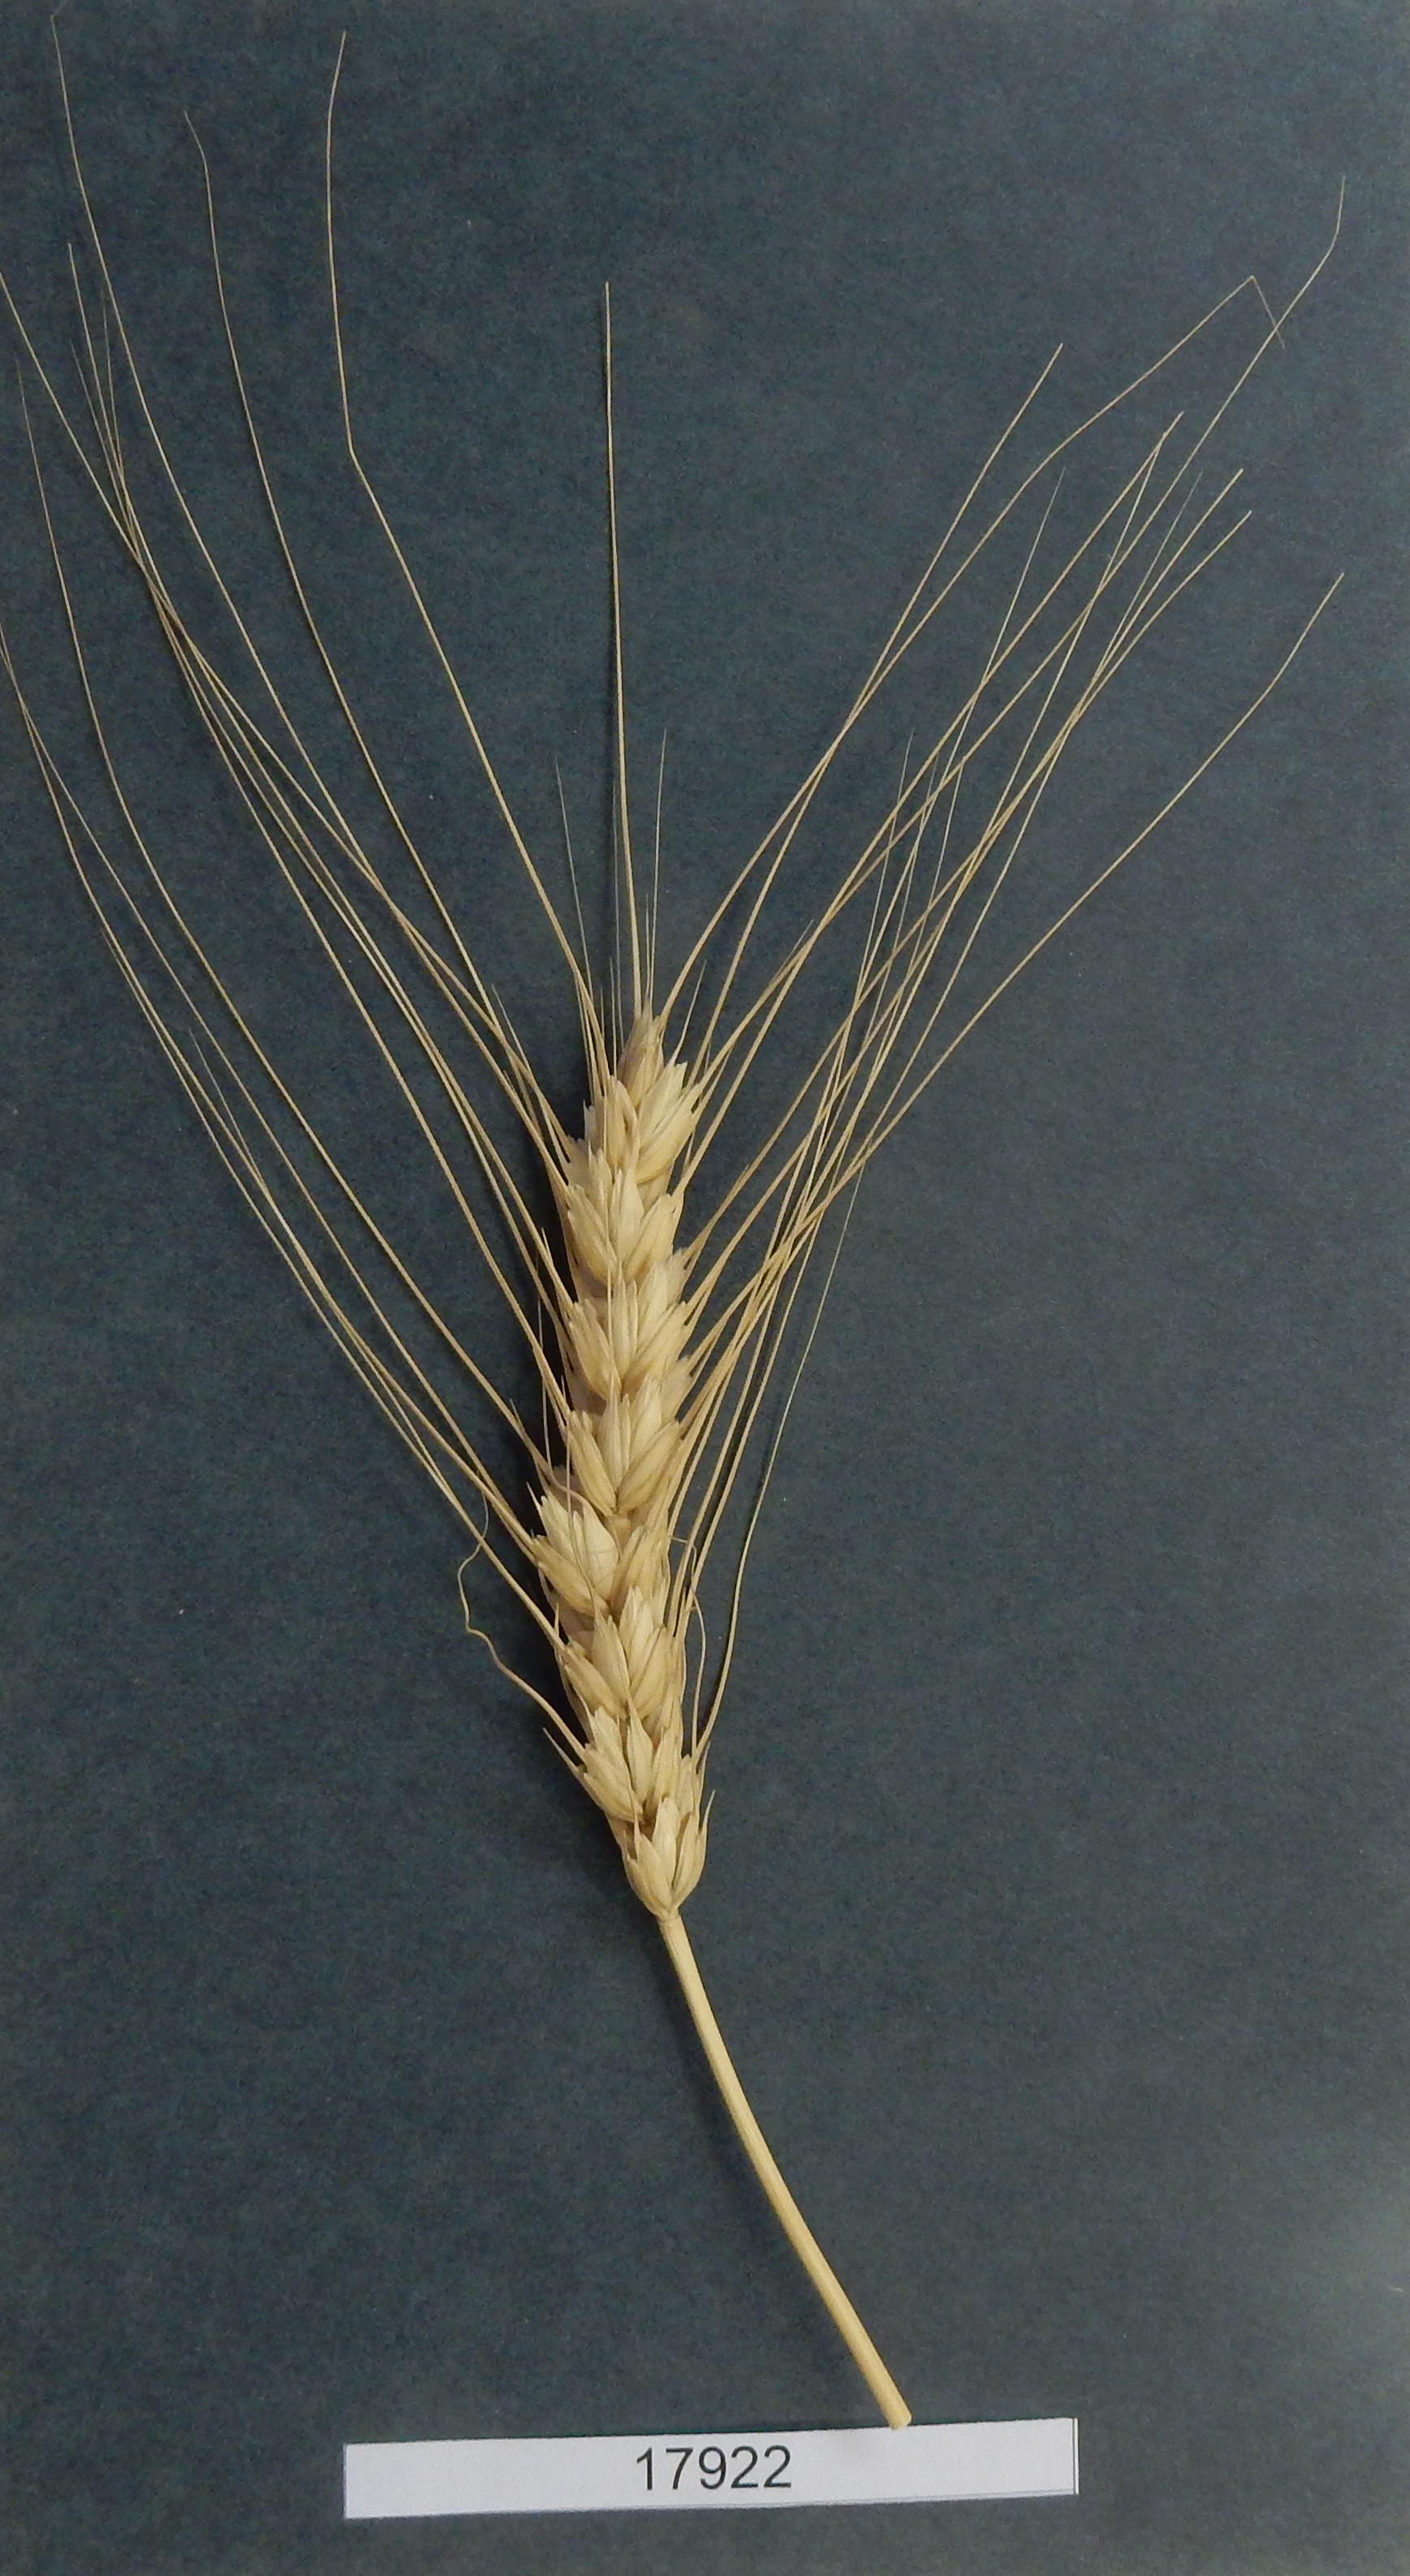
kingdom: Plantae
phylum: Tracheophyta
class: Liliopsida
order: Poales
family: Poaceae
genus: Triticum
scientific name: Triticum
